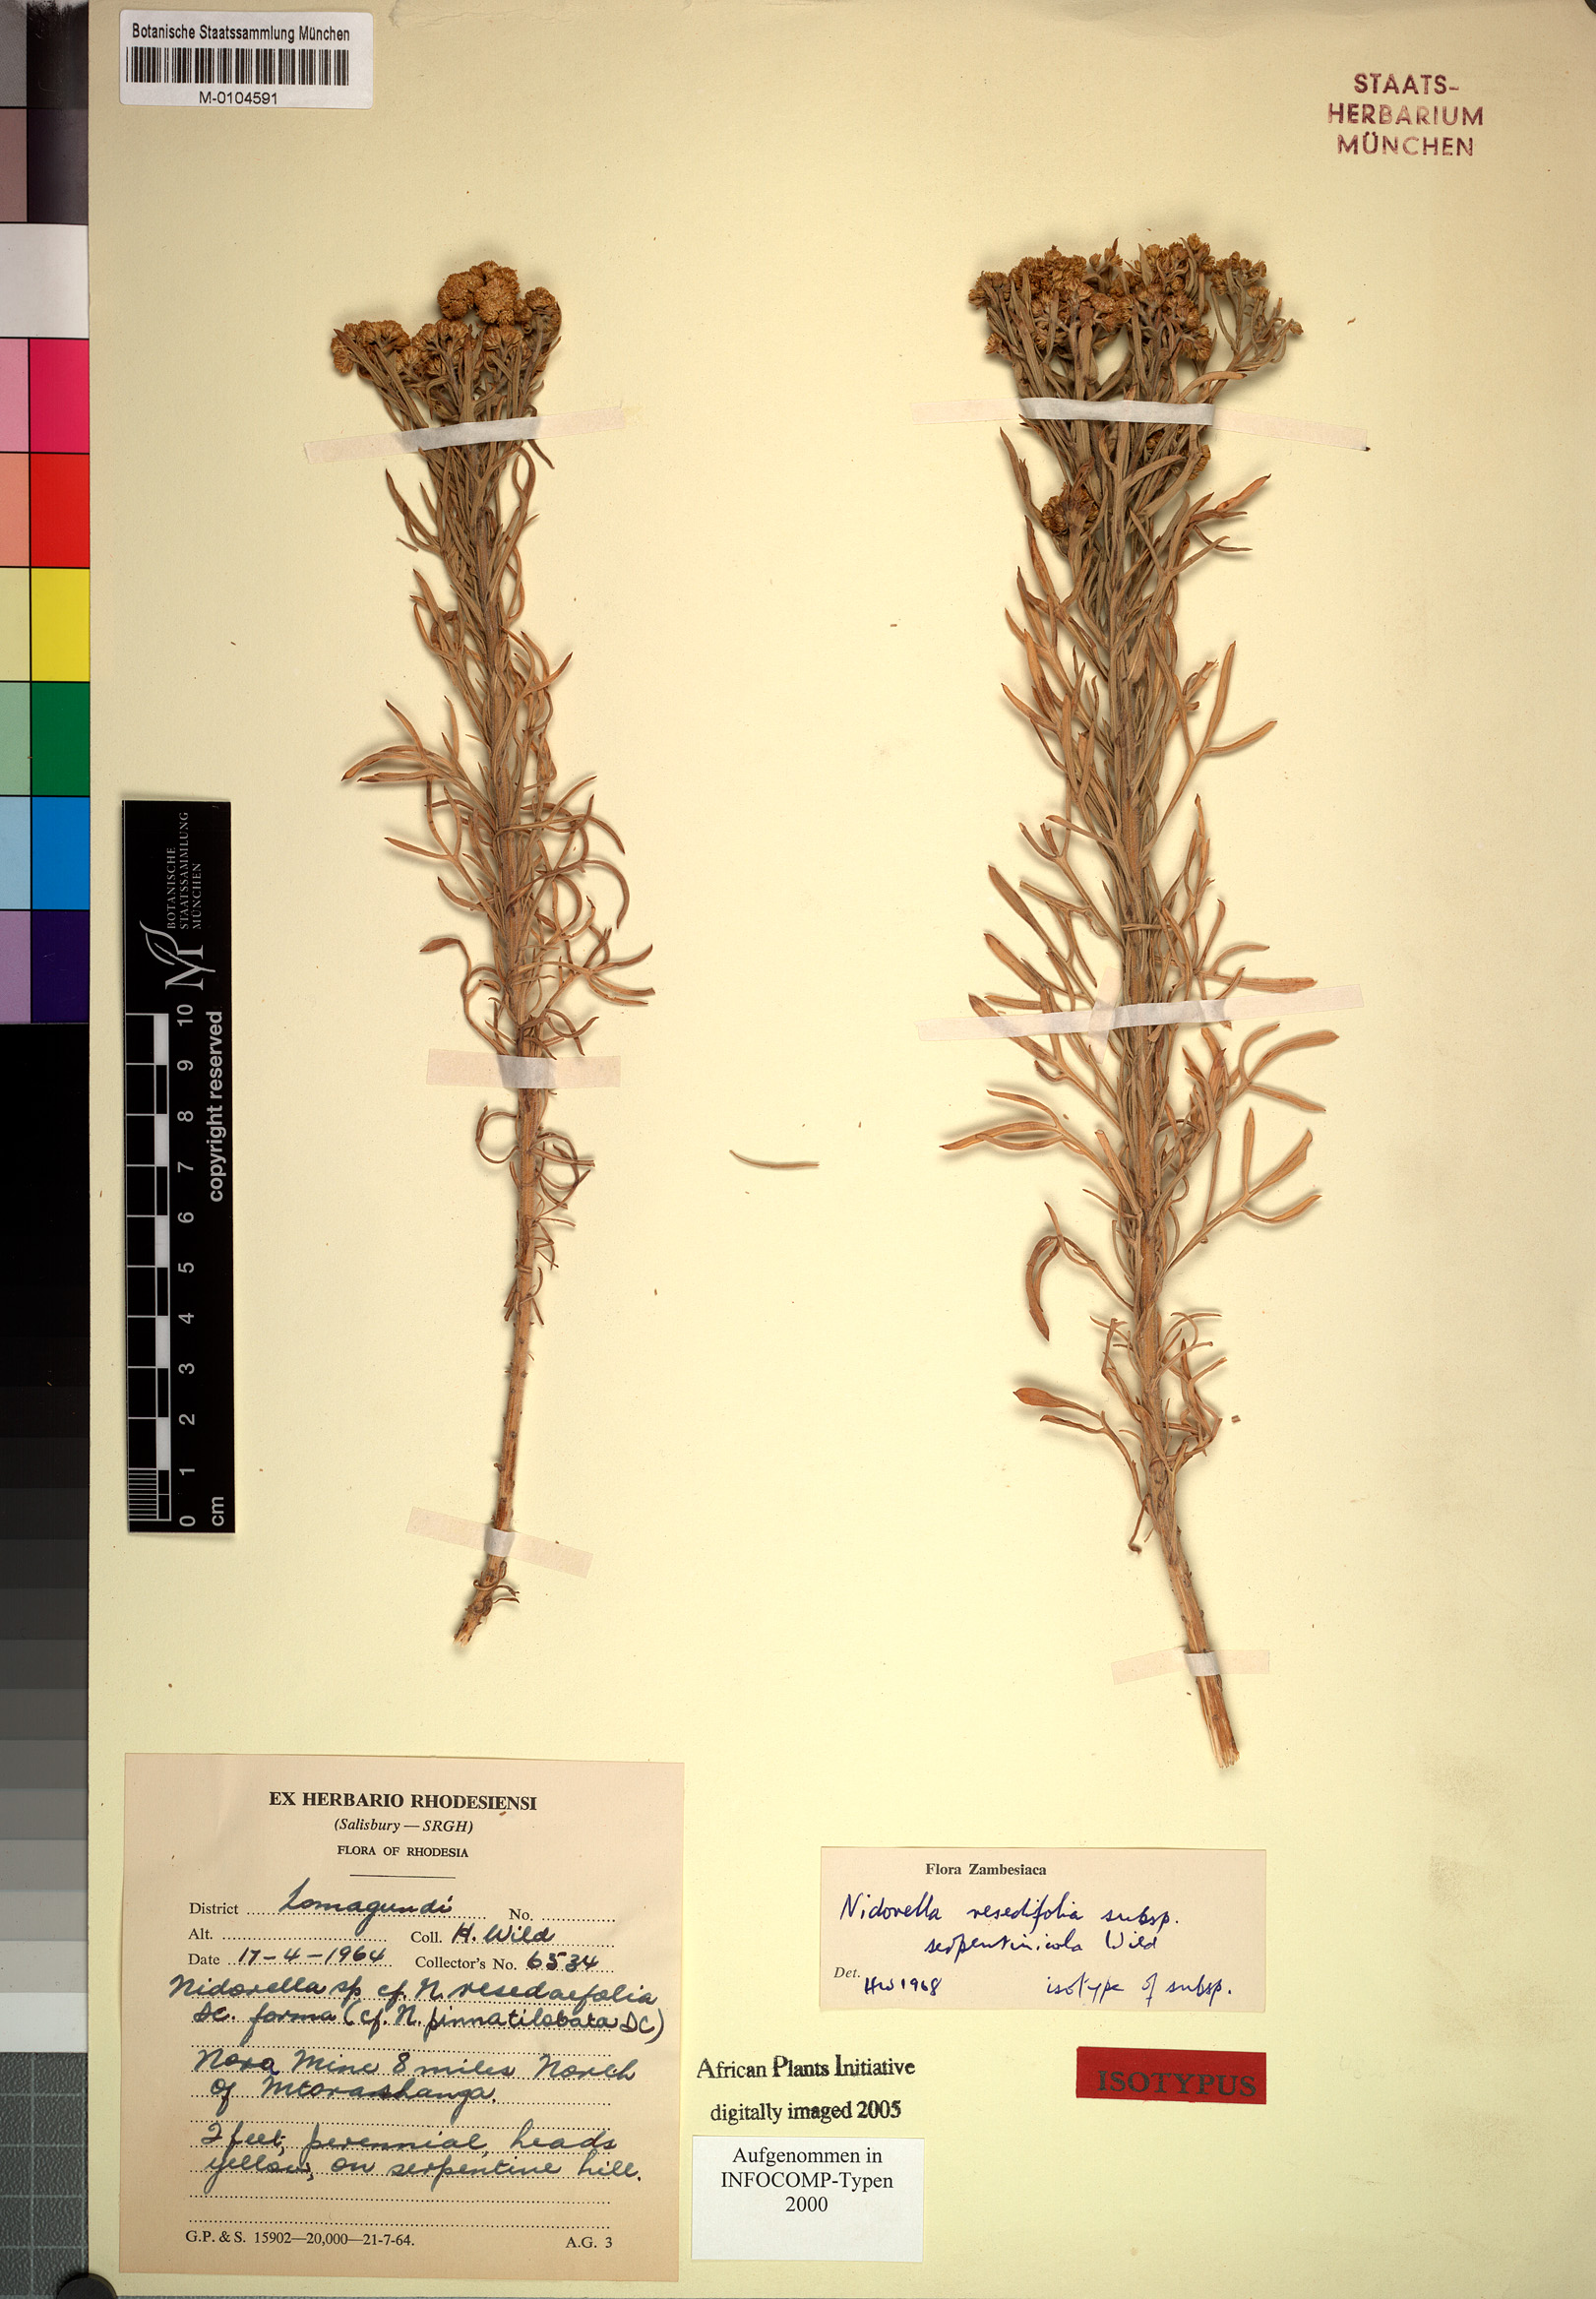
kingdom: Plantae
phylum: Tracheophyta
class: Magnoliopsida
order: Asterales
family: Asteraceae
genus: Nidorella
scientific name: Nidorella resedifolia
